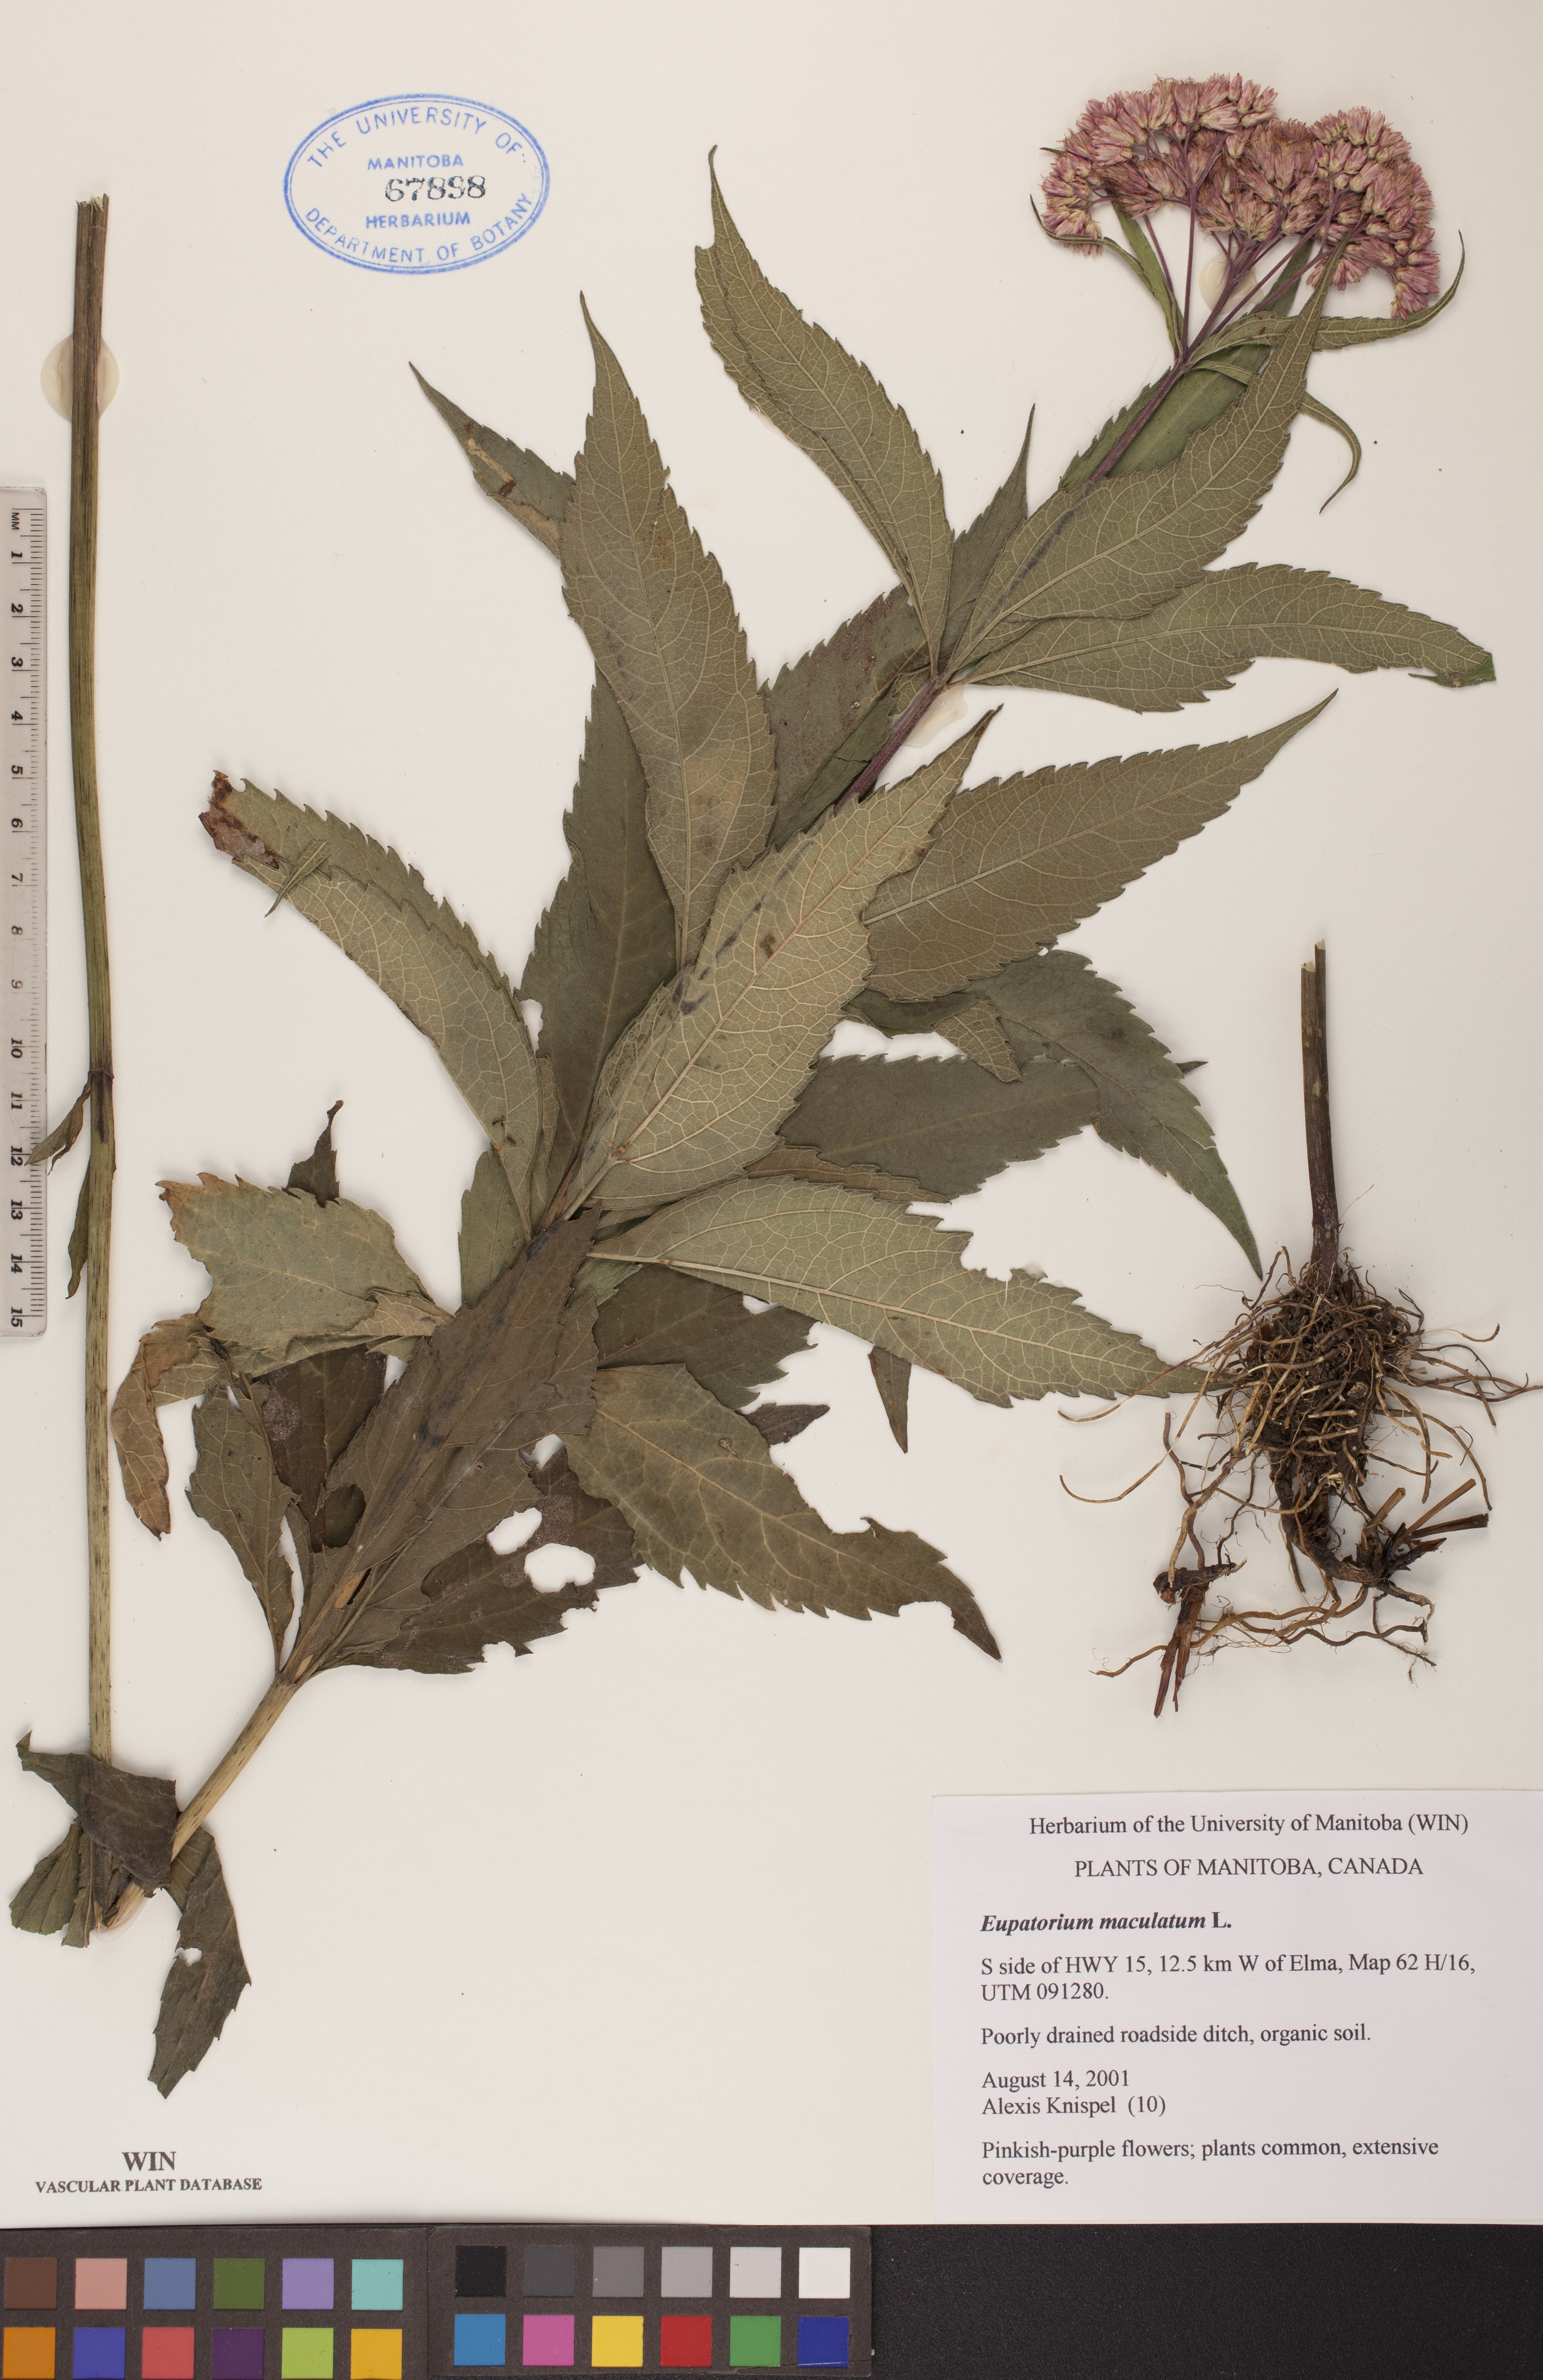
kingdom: Plantae
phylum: Tracheophyta
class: Magnoliopsida
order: Asterales
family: Asteraceae
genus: Eutrochium
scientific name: Eutrochium maculatum
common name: Spotted joe pye weed
